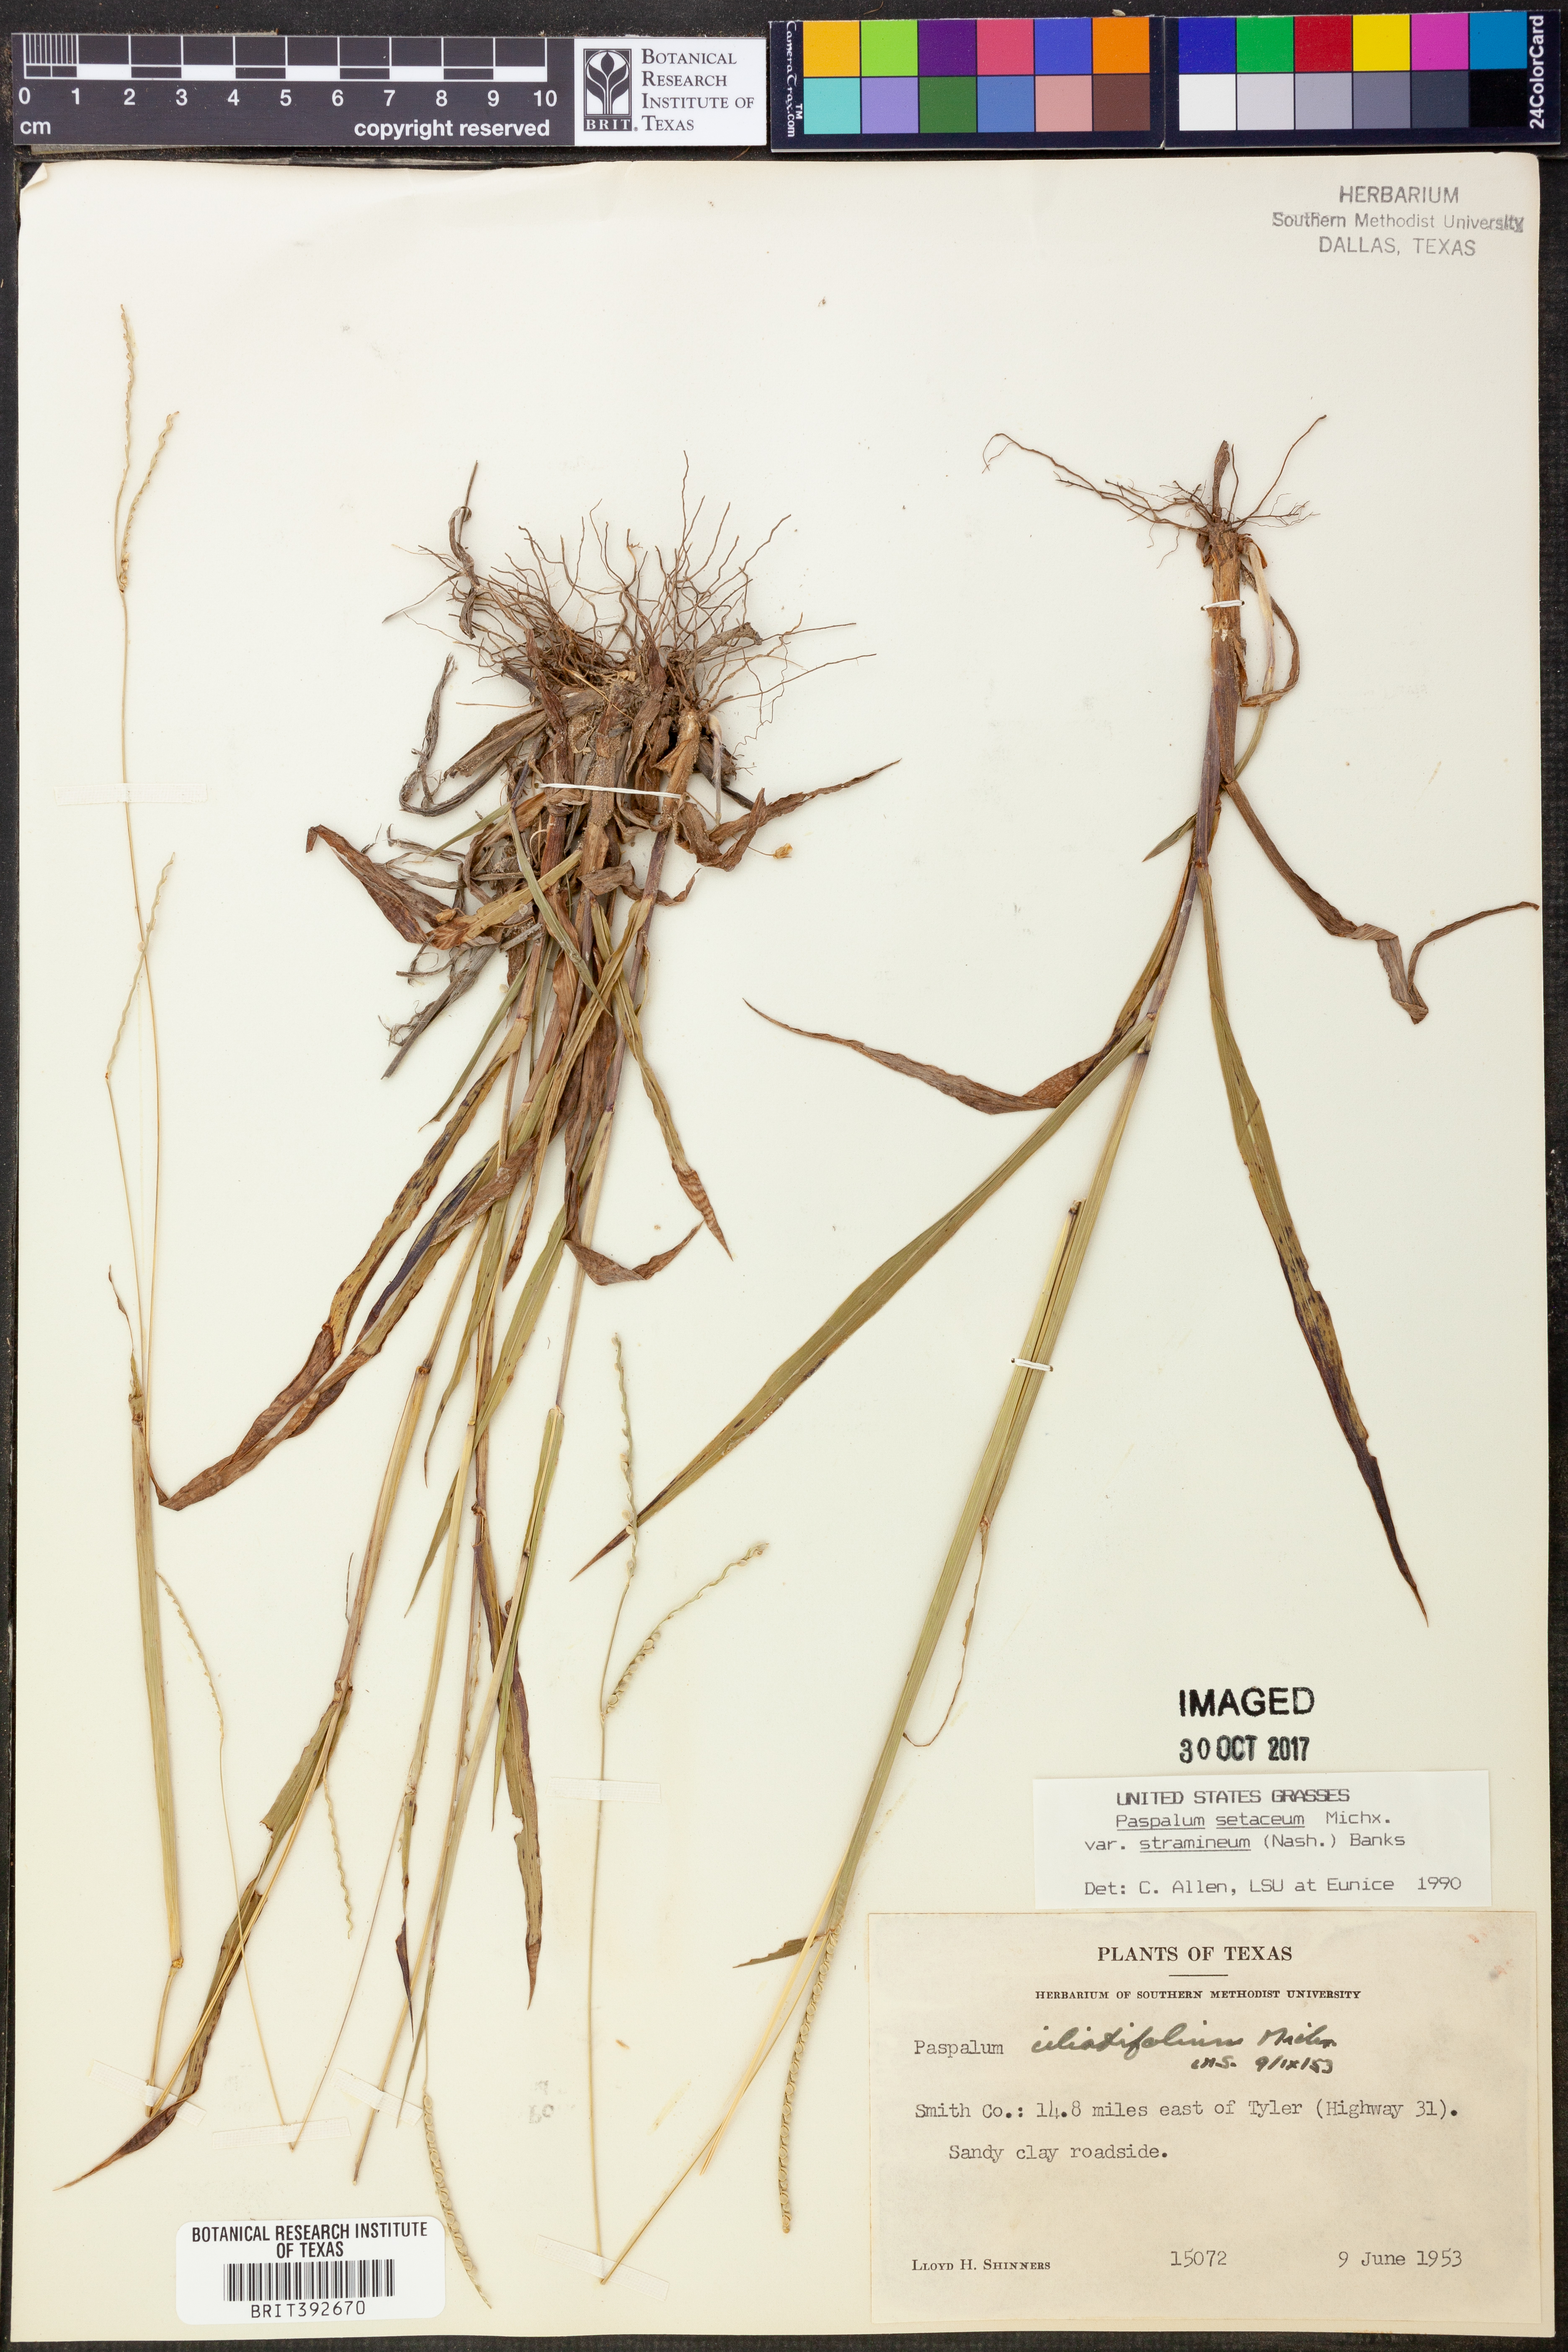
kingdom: Plantae
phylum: Tracheophyta
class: Liliopsida
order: Poales
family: Poaceae
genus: Paspalum
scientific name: Paspalum setaceum
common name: Slender paspalum
